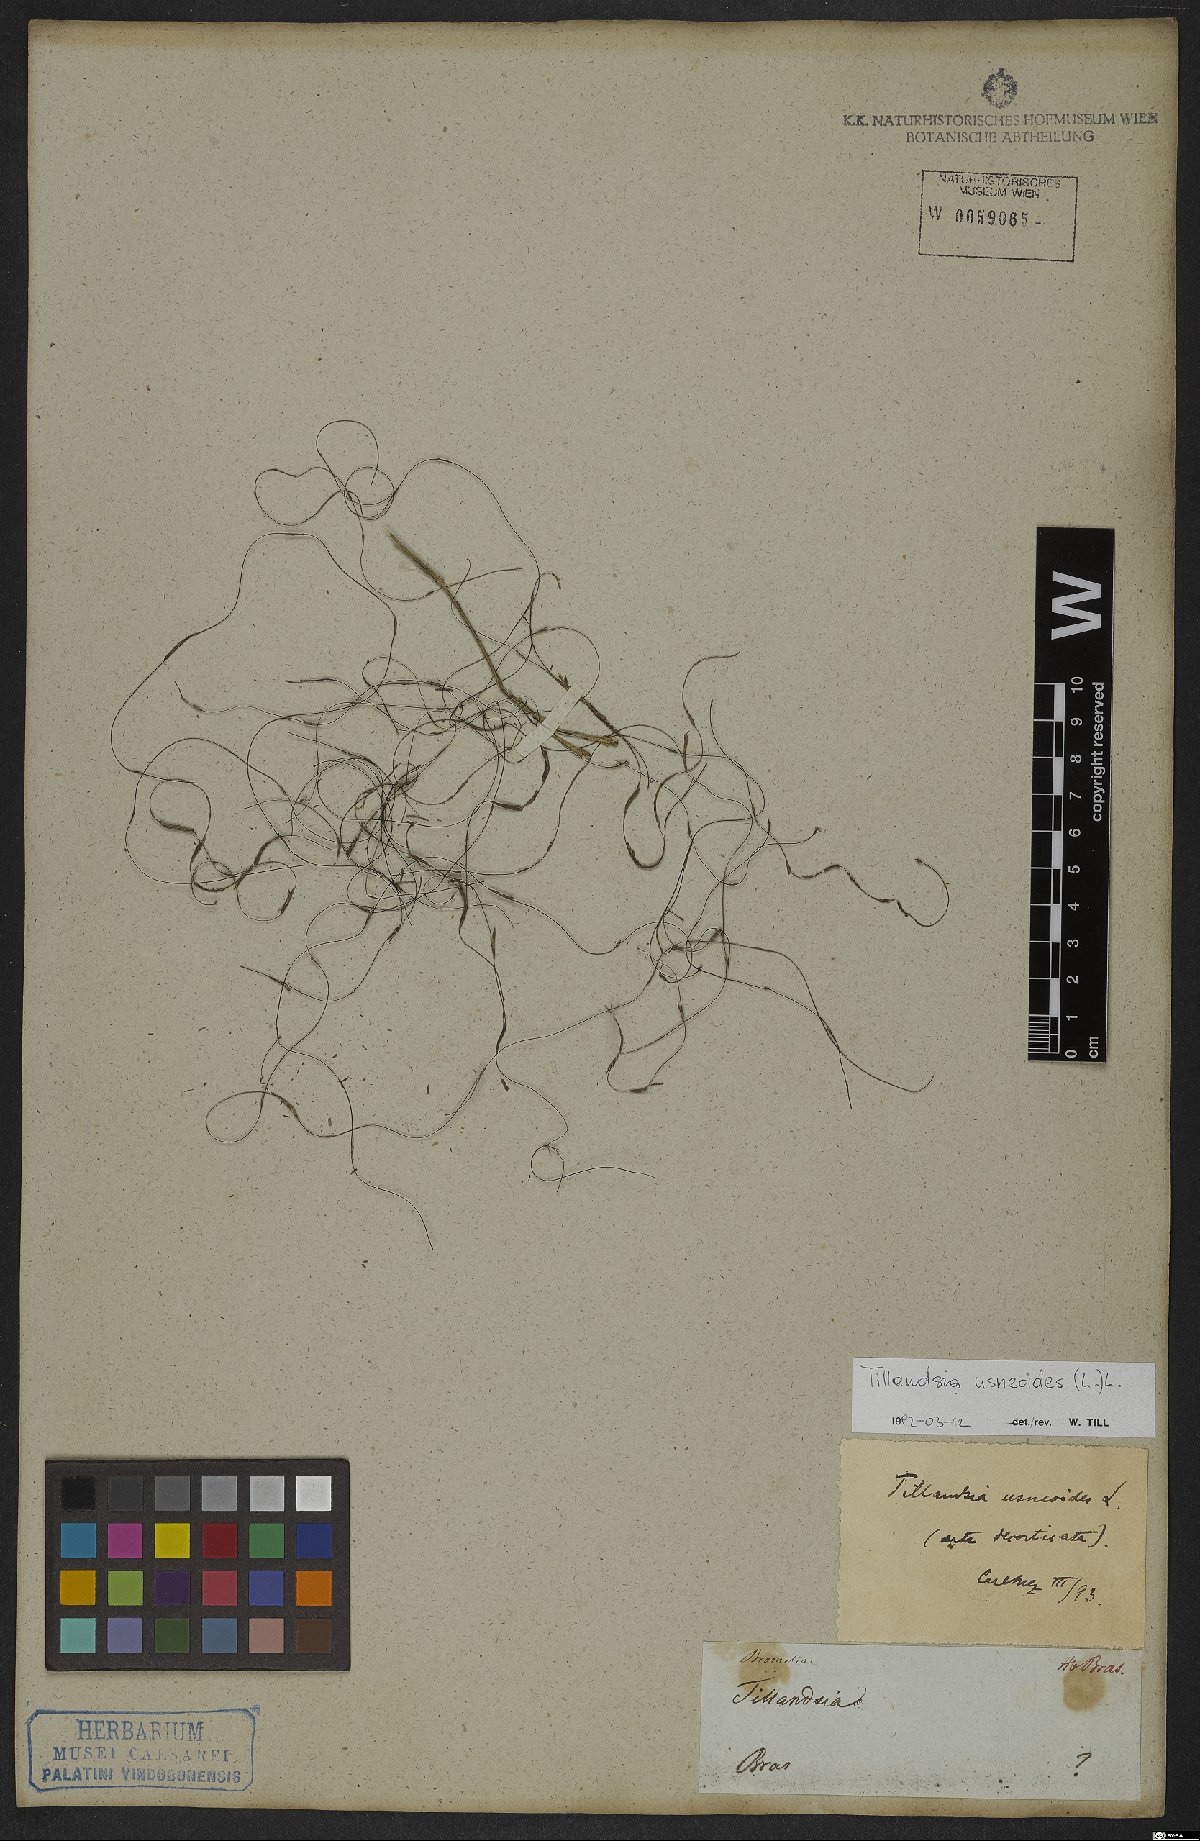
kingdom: Plantae
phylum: Tracheophyta
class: Liliopsida
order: Poales
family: Bromeliaceae
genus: Tillandsia
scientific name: Tillandsia usneoides
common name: Spanish moss
